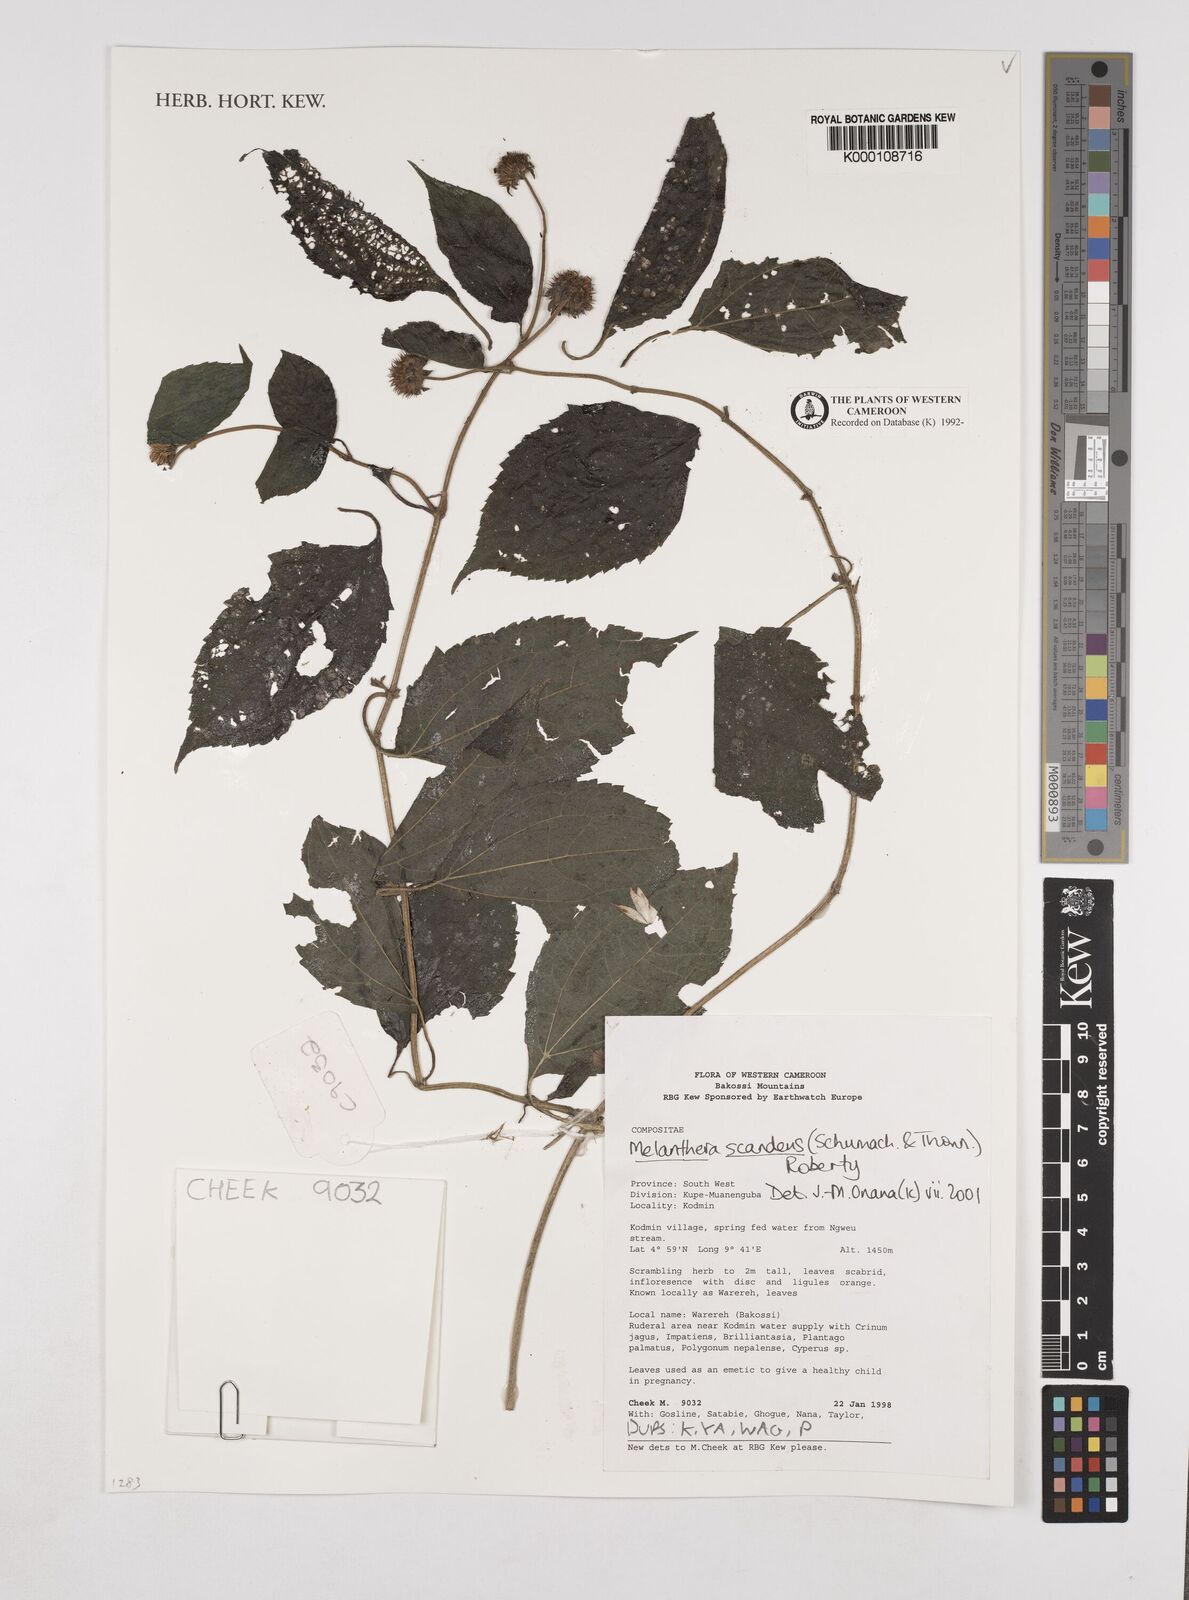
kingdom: Plantae
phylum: Tracheophyta
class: Magnoliopsida
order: Asterales
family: Asteraceae
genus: Melanthera
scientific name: Melanthera
